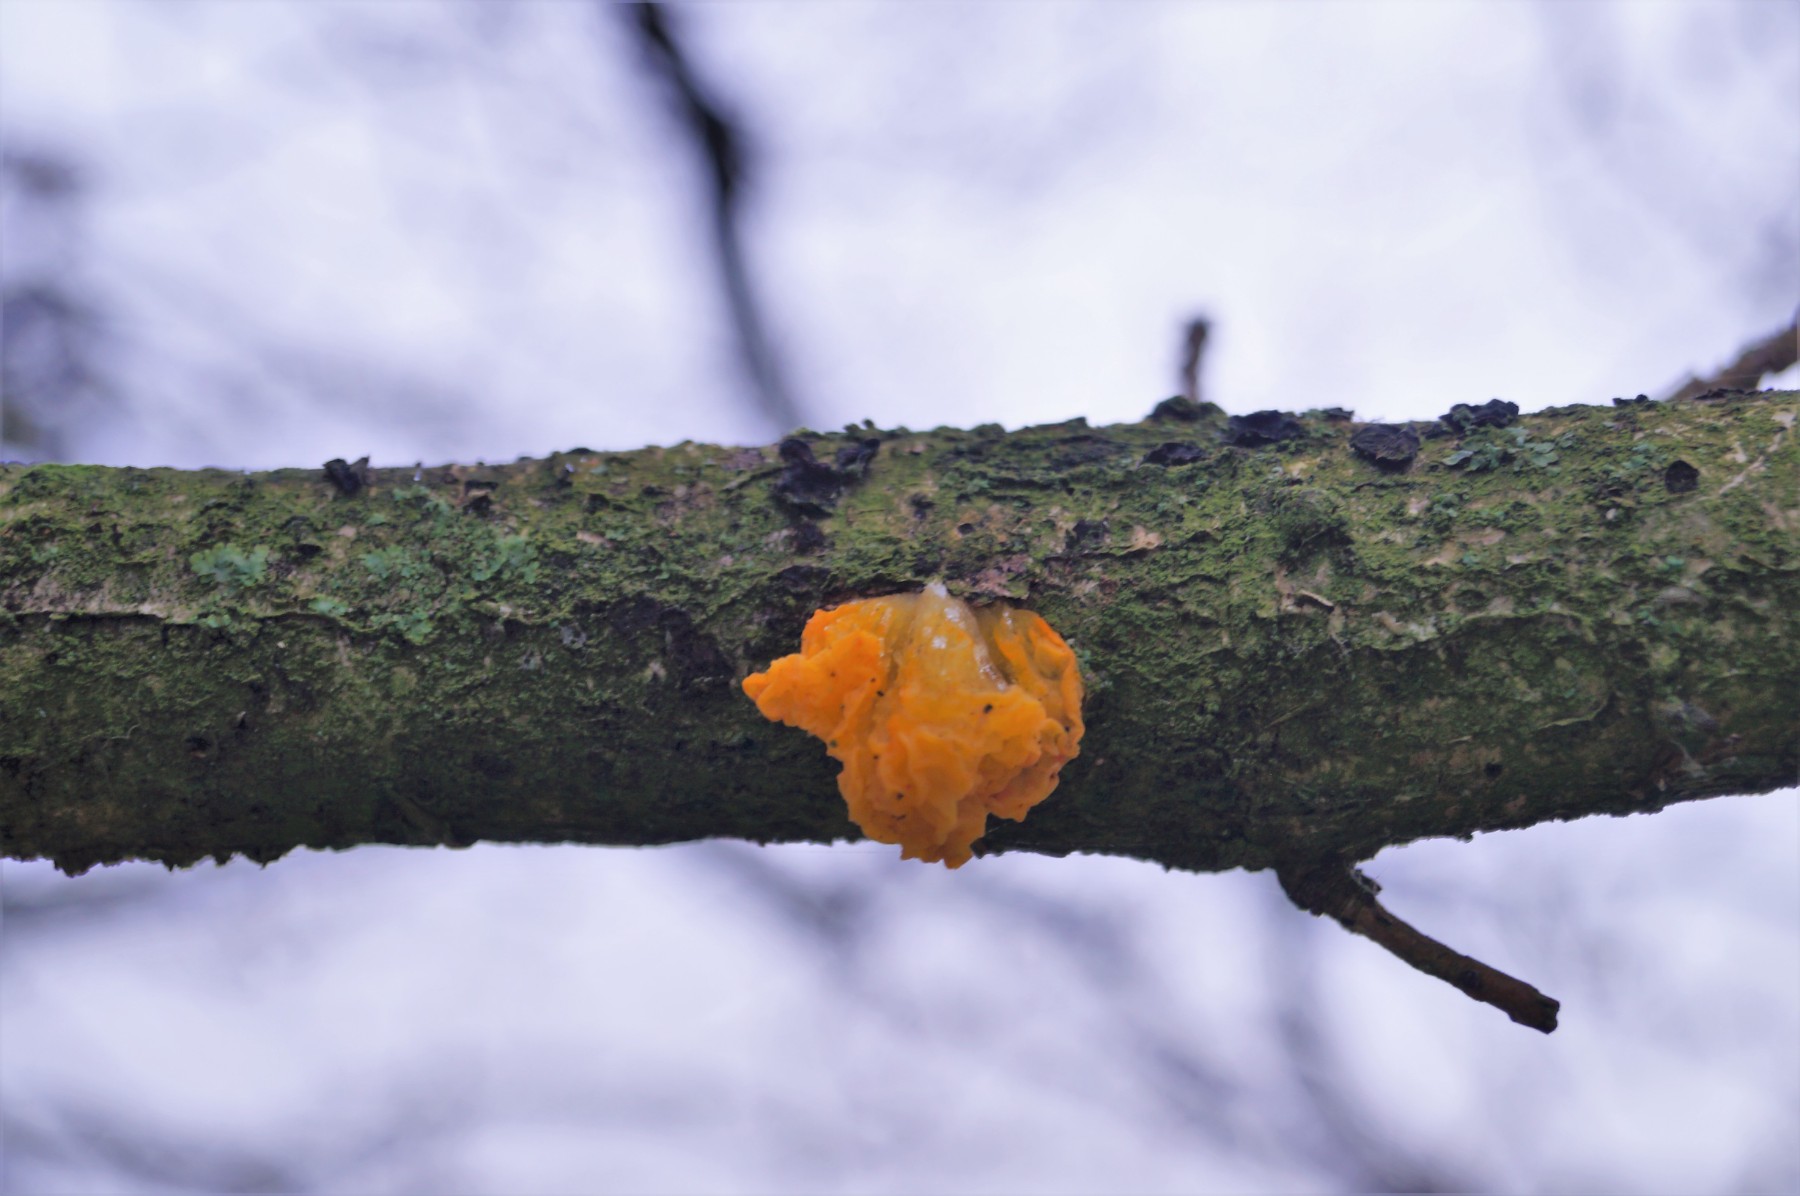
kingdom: Fungi
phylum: Basidiomycota
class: Tremellomycetes
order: Tremellales
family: Tremellaceae
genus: Tremella
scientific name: Tremella mesenterica
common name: gul bævresvamp
